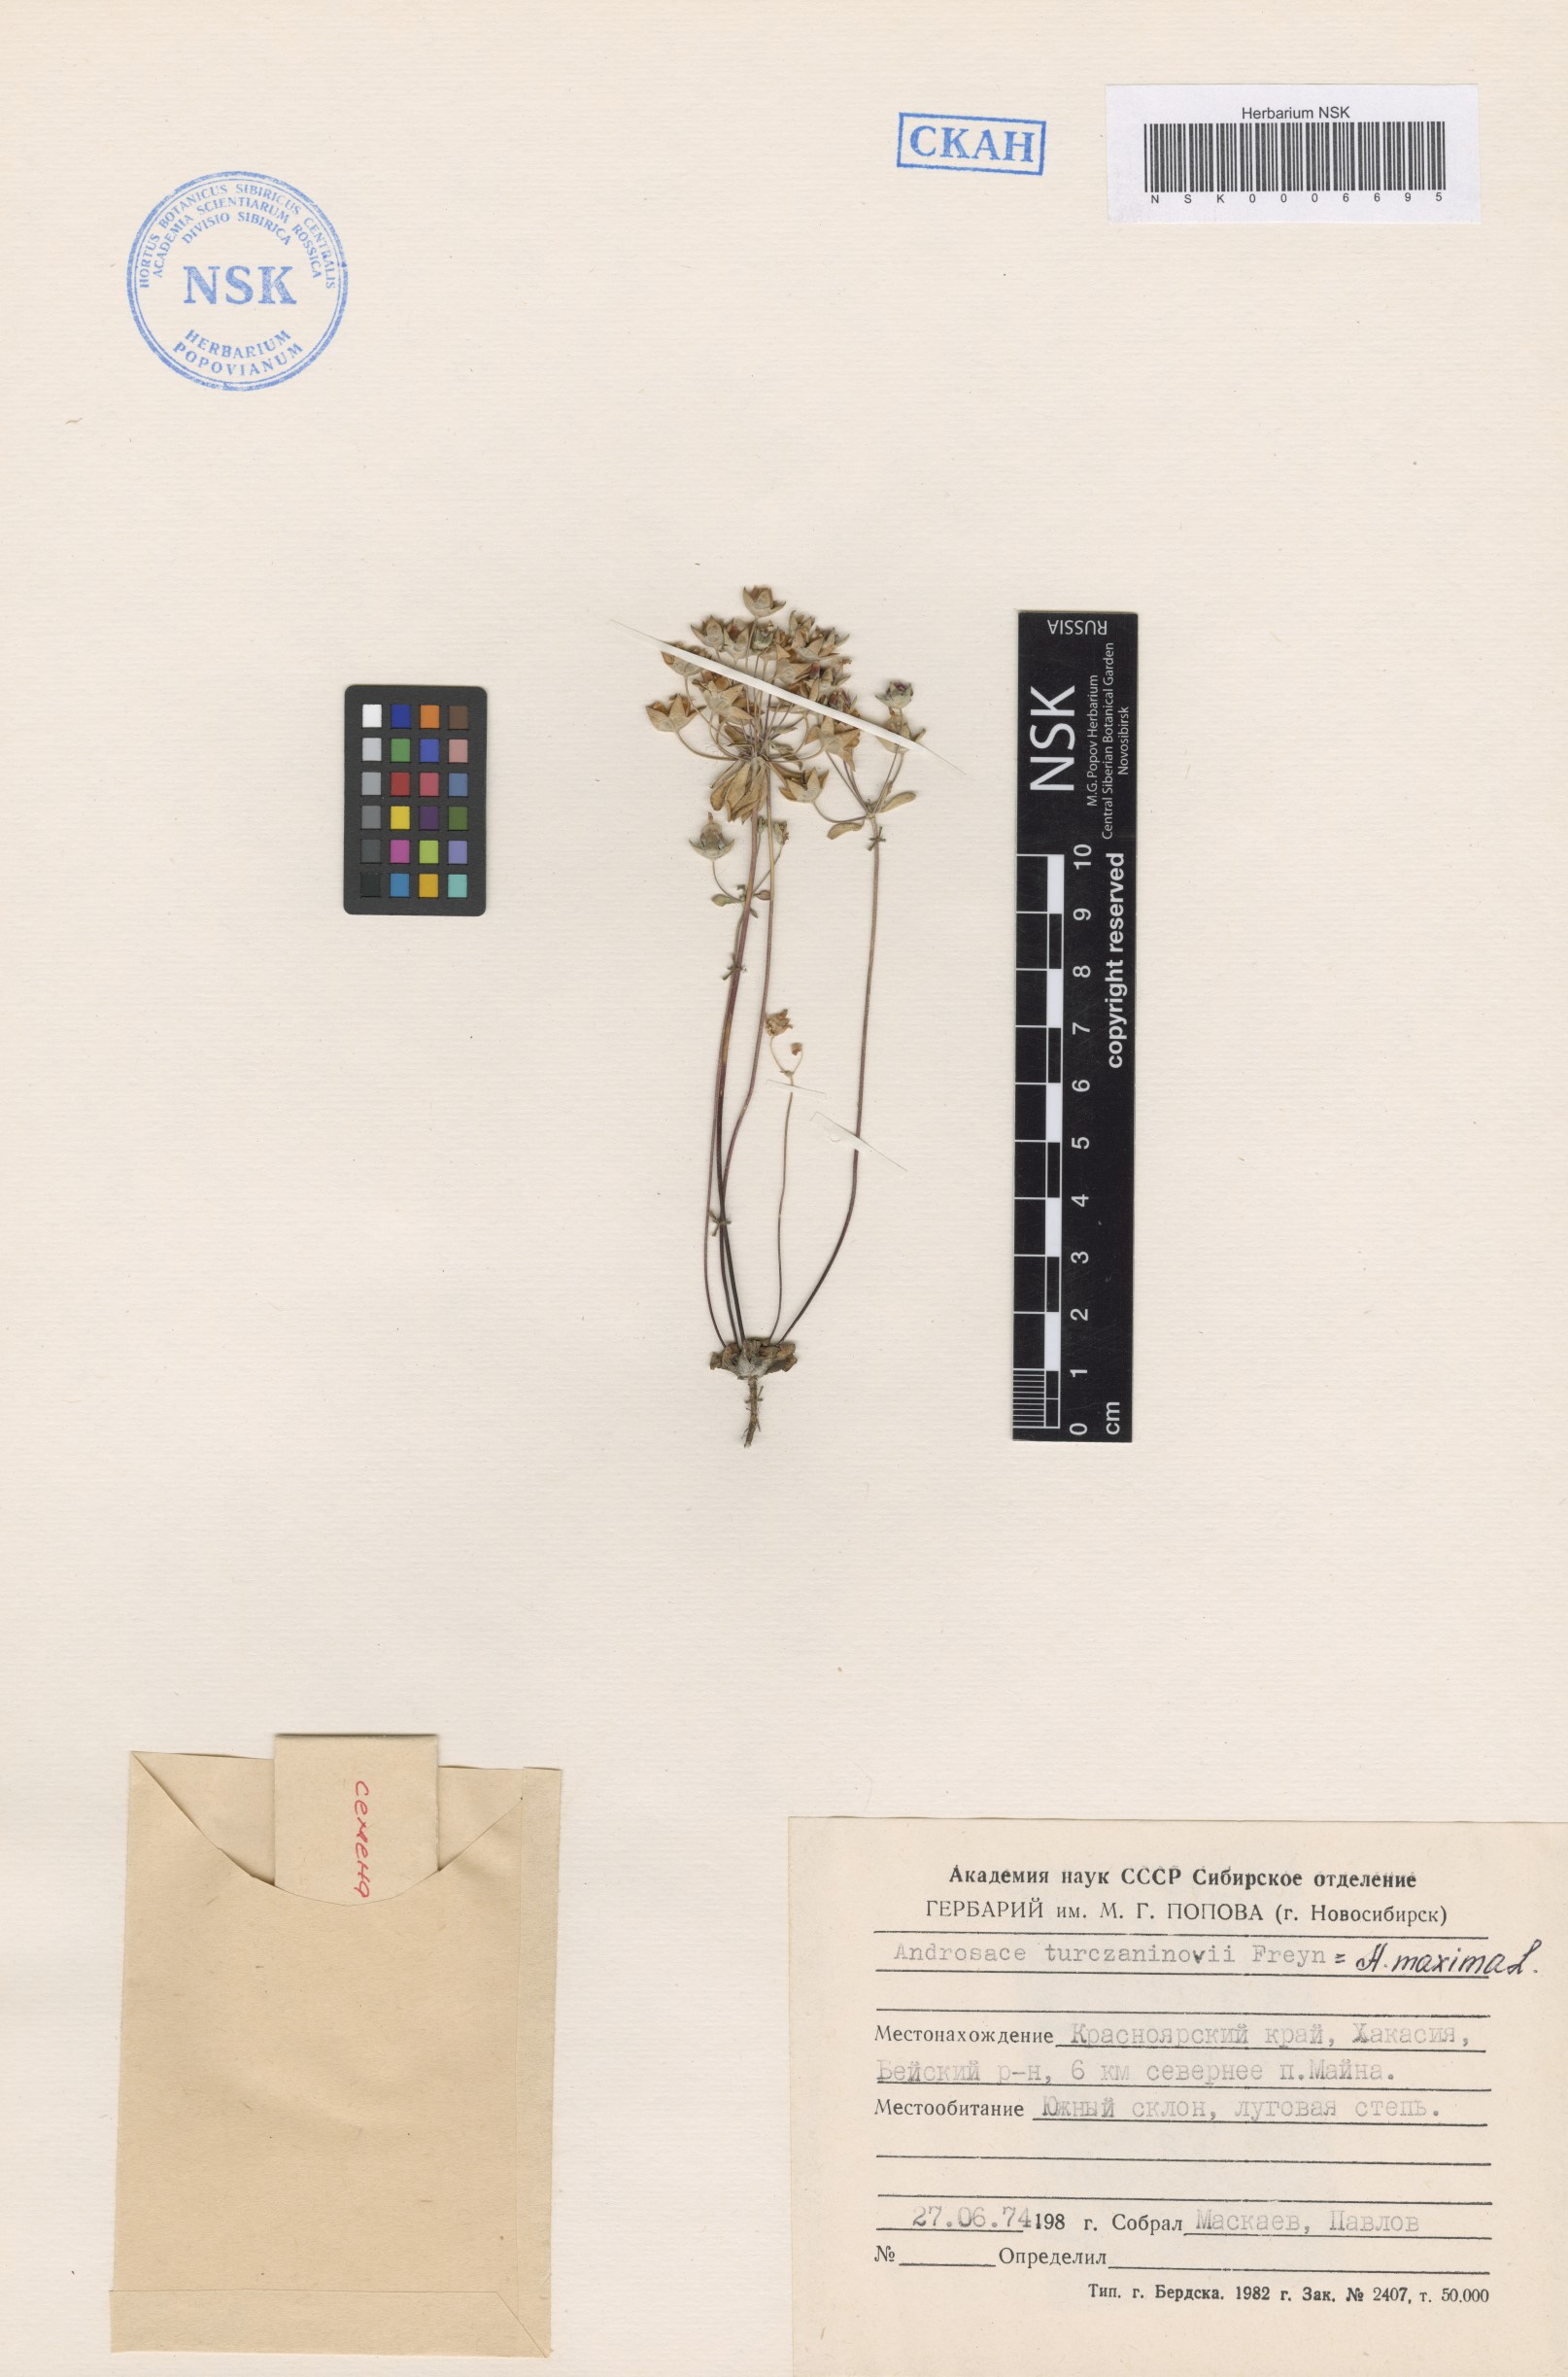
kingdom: Plantae
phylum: Tracheophyta
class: Magnoliopsida
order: Ericales
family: Primulaceae
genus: Androsace
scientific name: Androsace maxima
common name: Annual androsace
